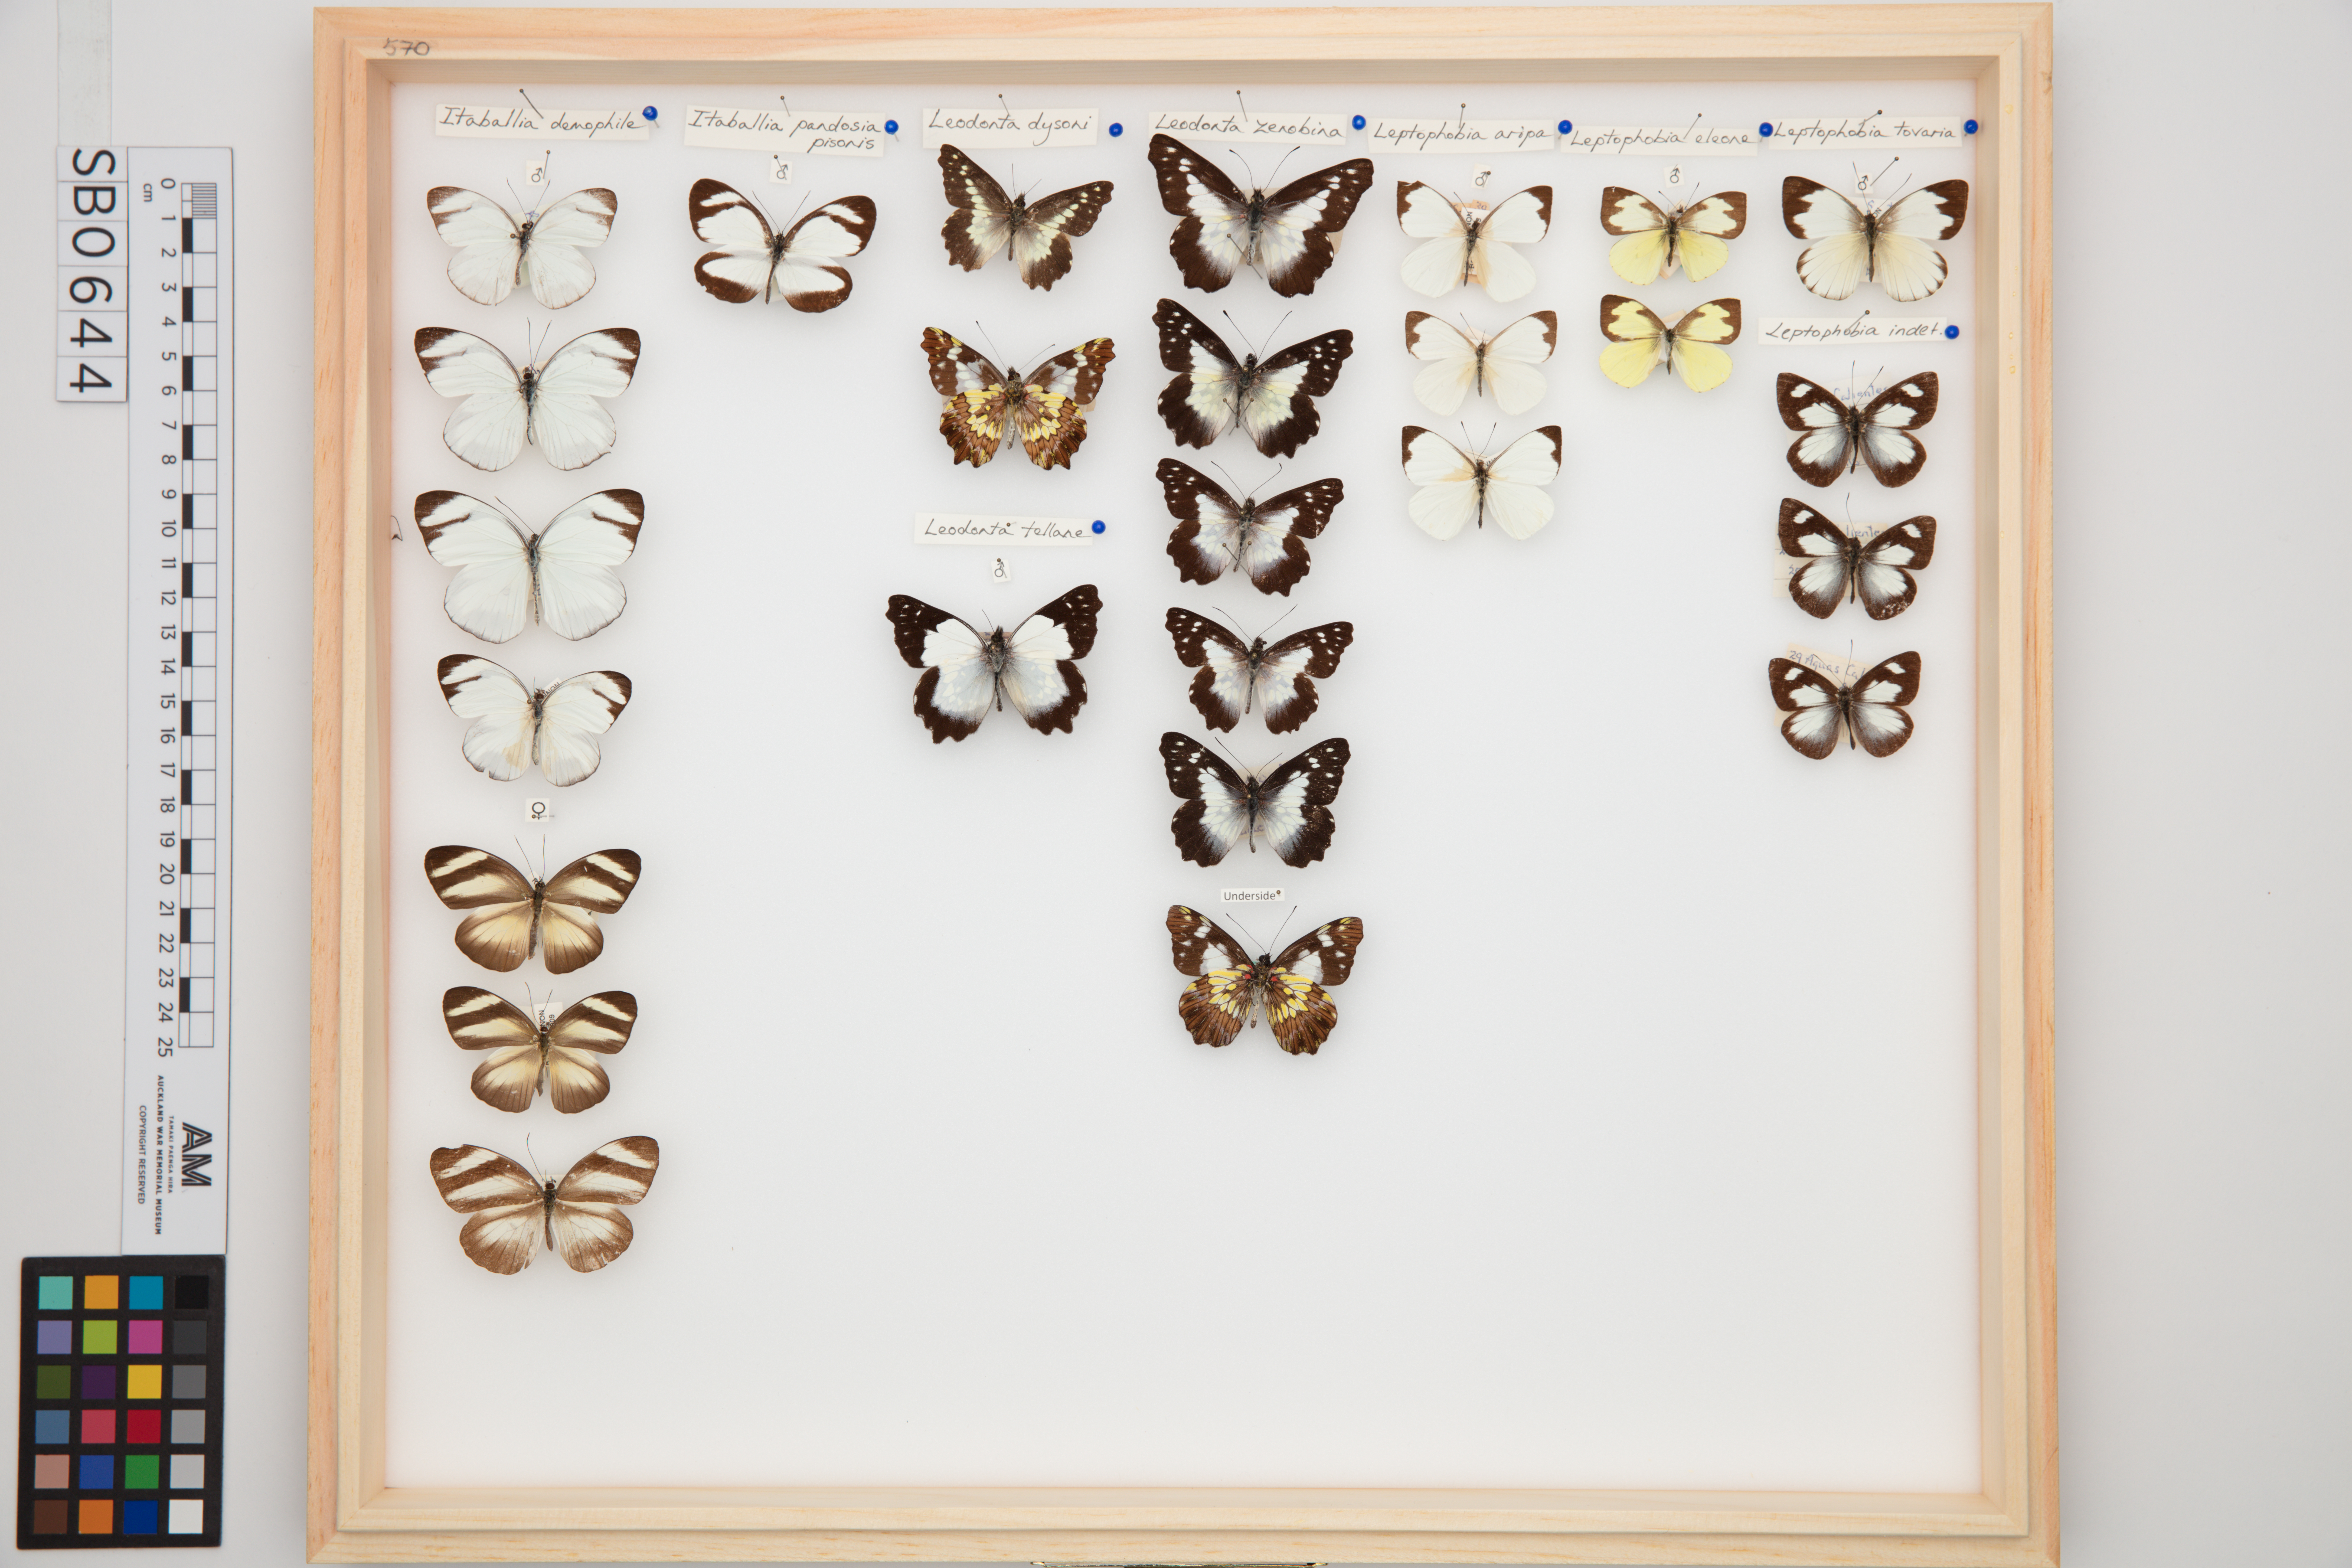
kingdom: Animalia
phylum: Arthropoda
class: Insecta
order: Lepidoptera
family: Pieridae
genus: Leodonta
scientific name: Leodonta dysoni
